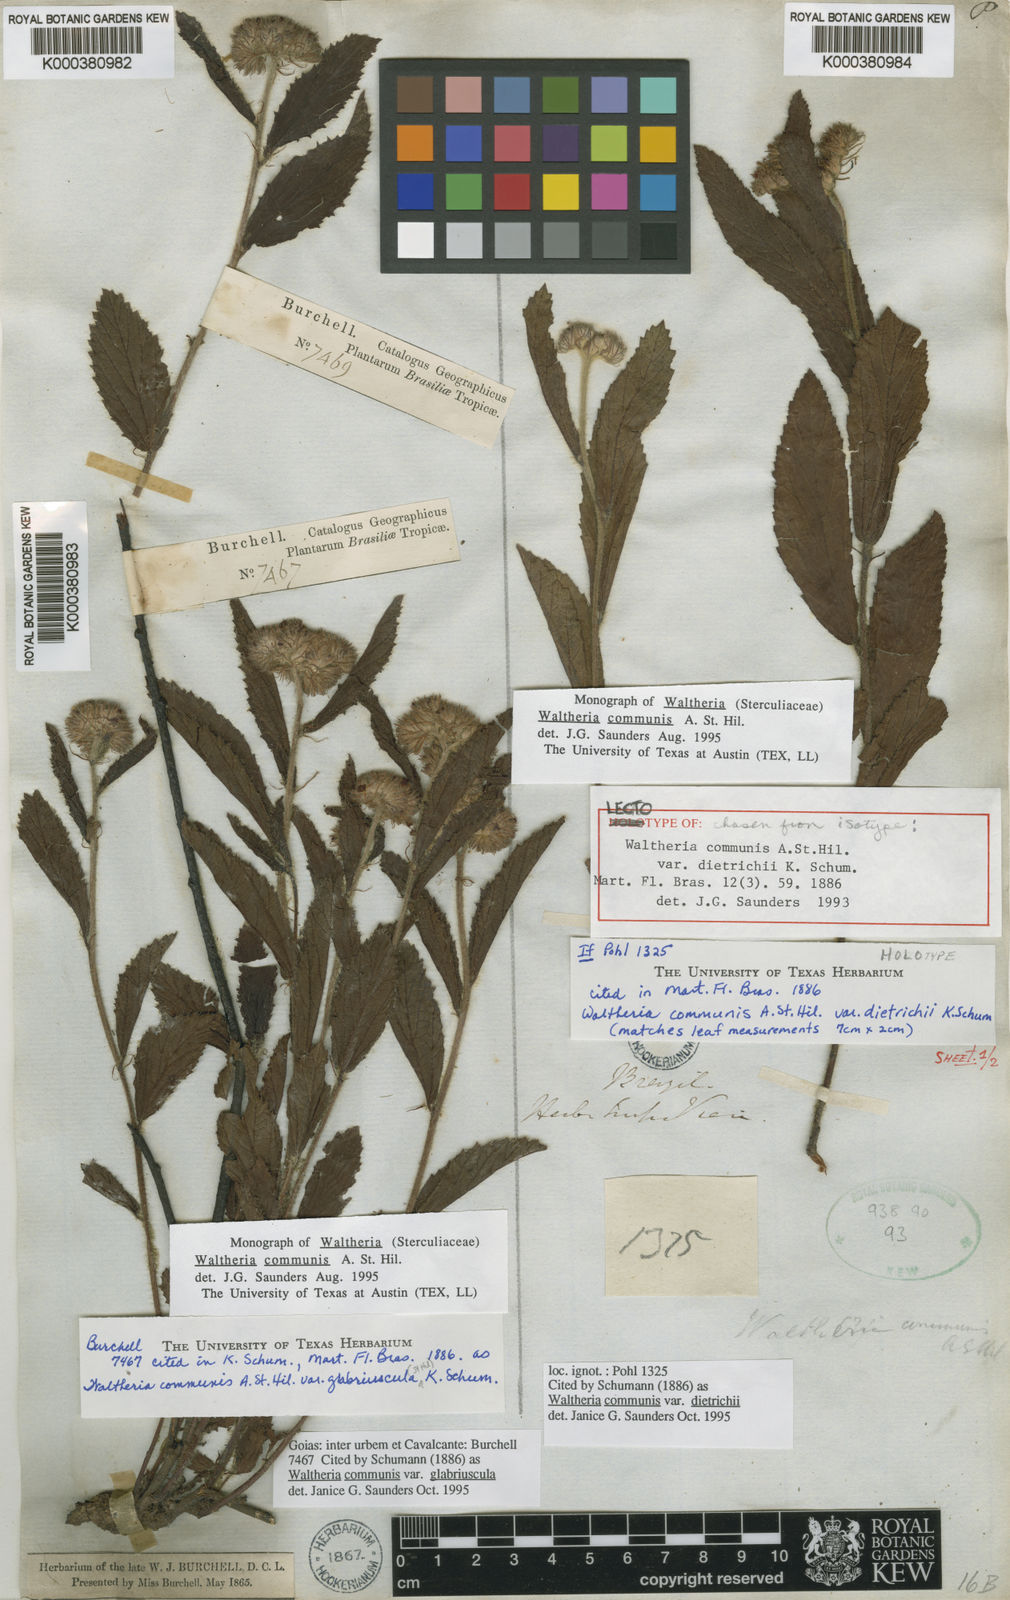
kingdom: Plantae
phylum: Tracheophyta
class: Magnoliopsida
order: Malvales
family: Malvaceae
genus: Waltheria
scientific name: Waltheria communis
